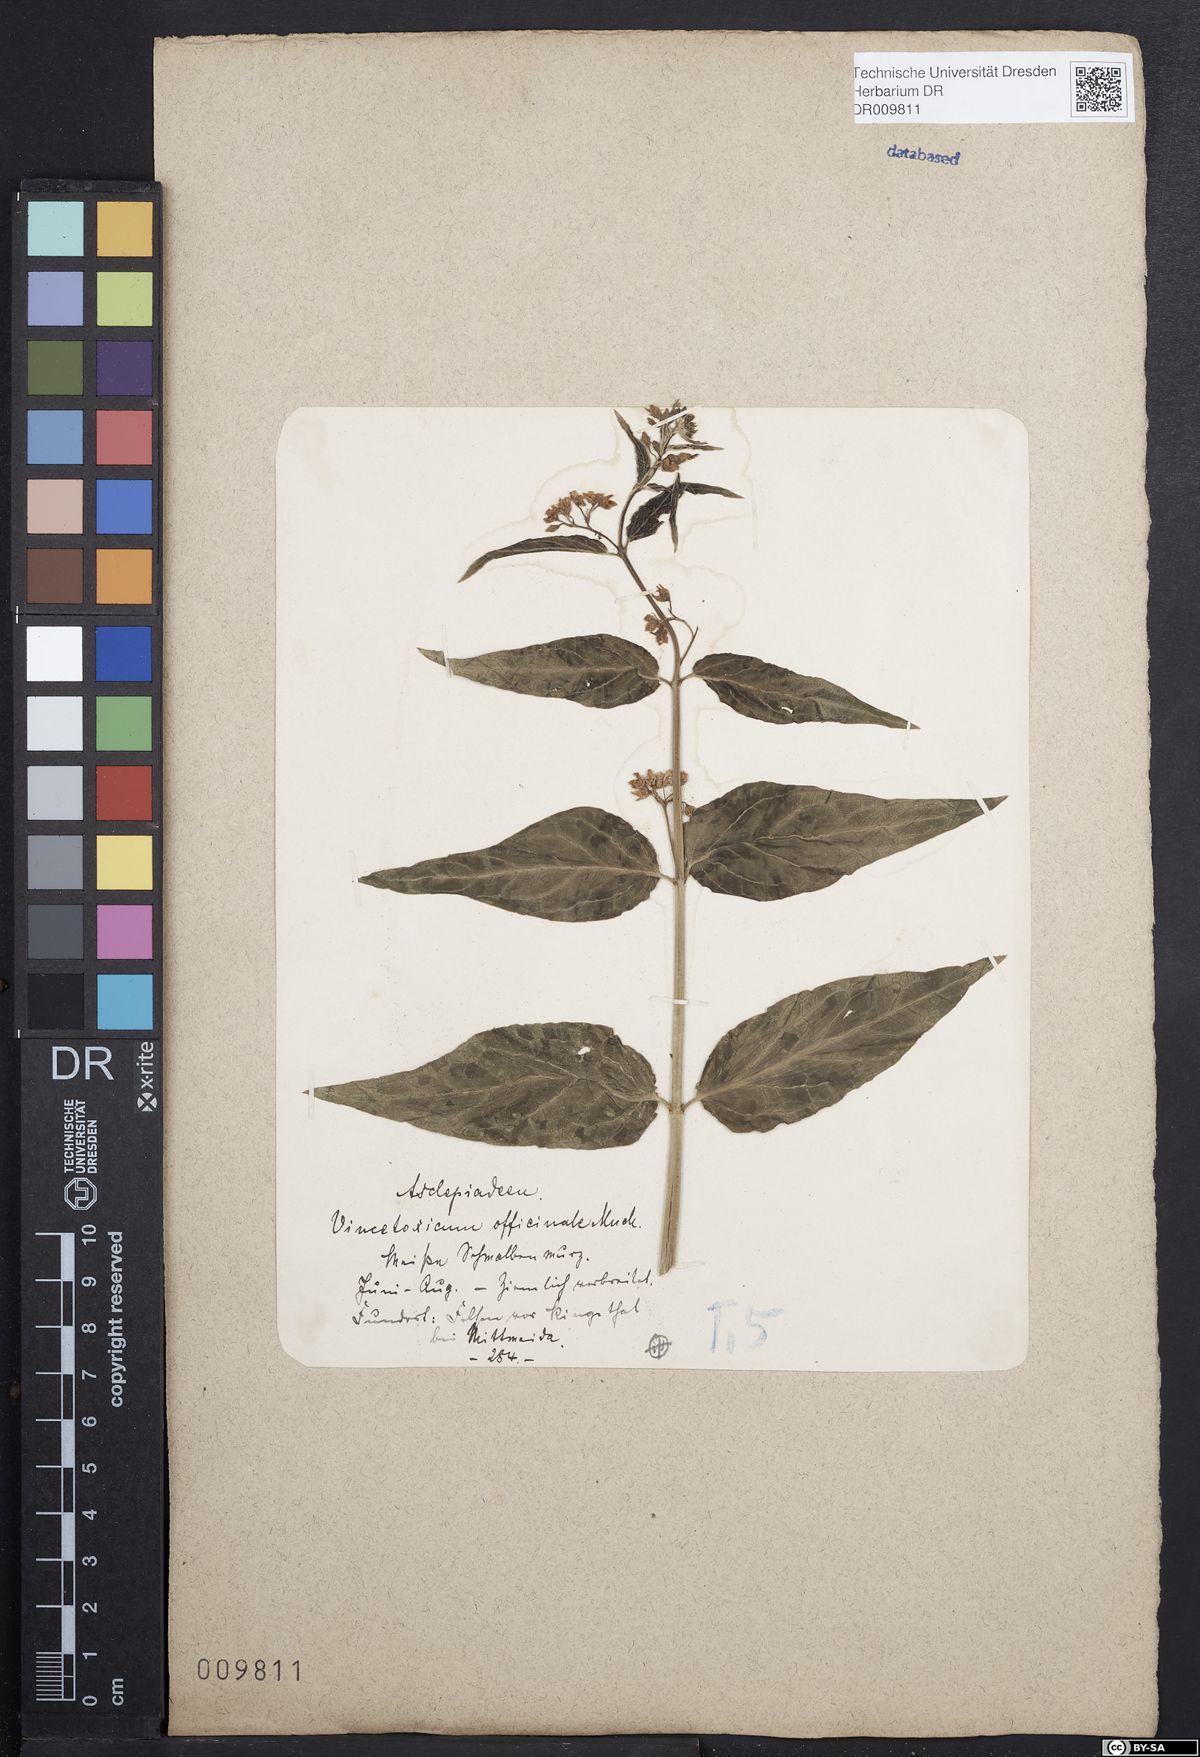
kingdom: Plantae
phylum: Tracheophyta
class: Magnoliopsida
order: Gentianales
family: Apocynaceae
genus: Vincetoxicum
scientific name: Vincetoxicum hirundinaria
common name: White swallowwort
